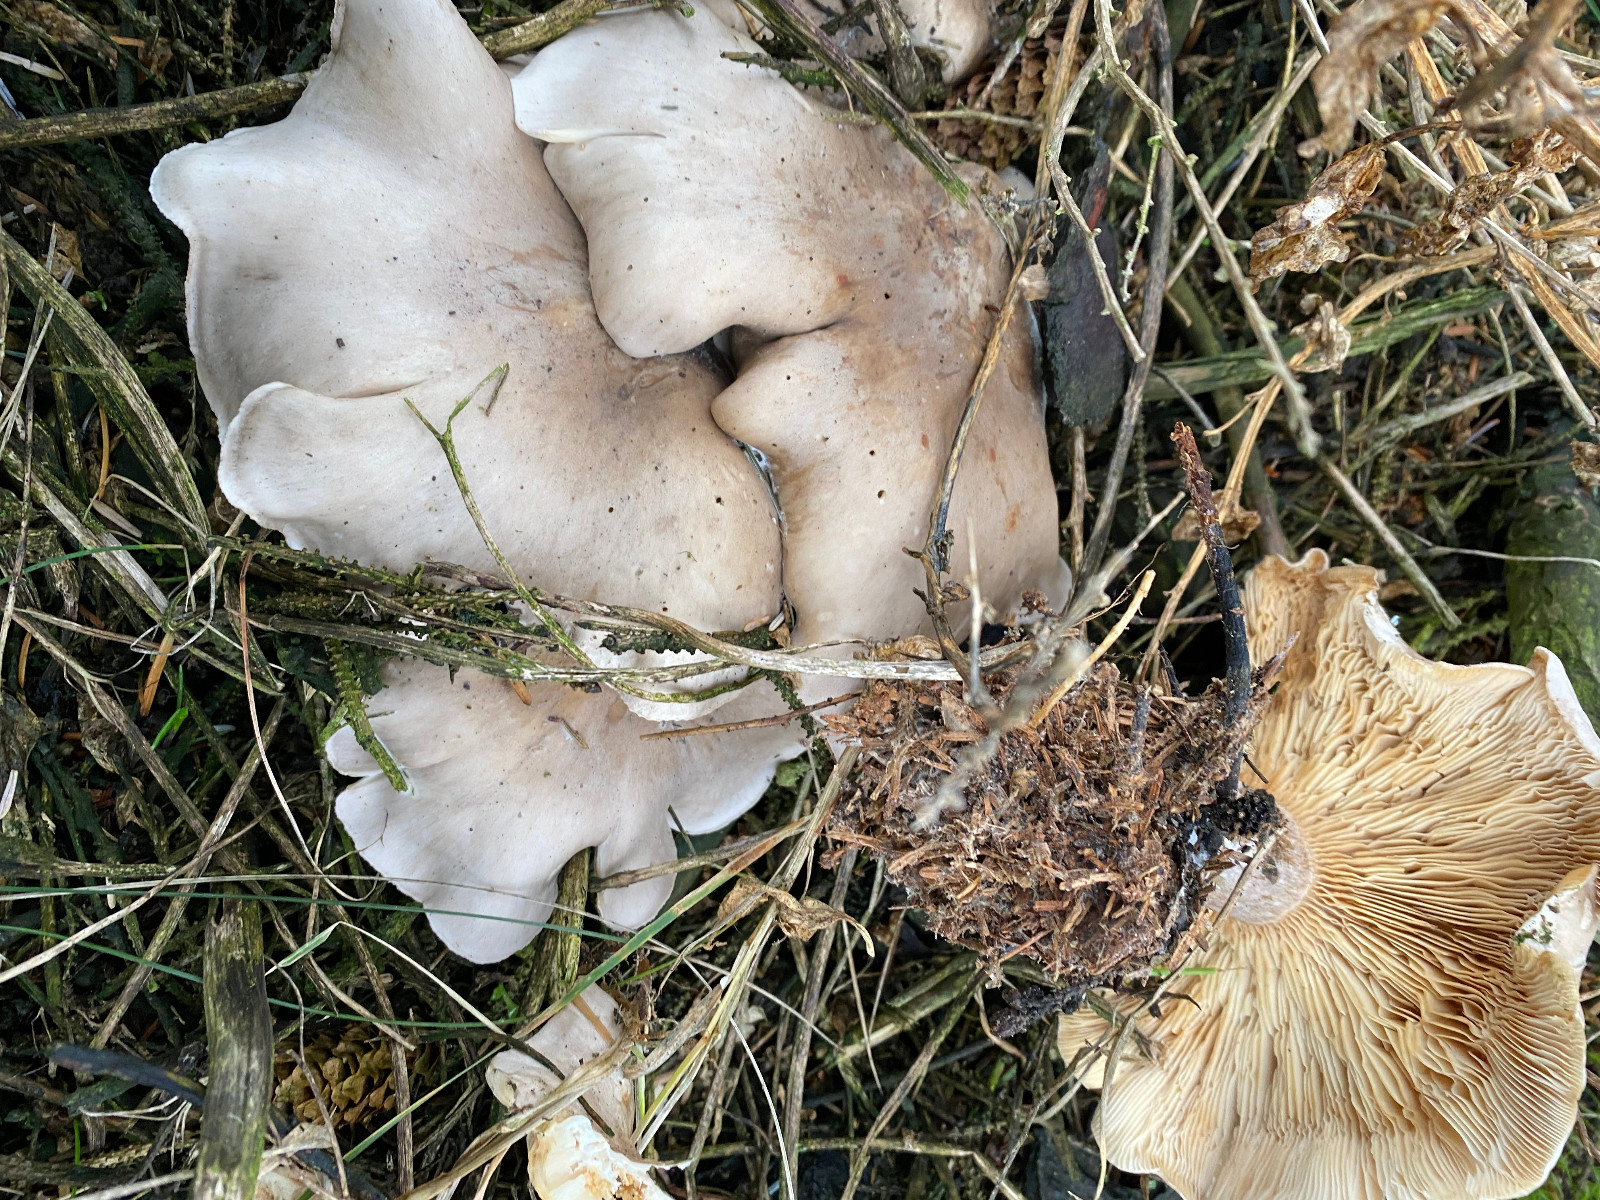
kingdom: Fungi
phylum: Basidiomycota
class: Agaricomycetes
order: Agaricales
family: Tricholomataceae
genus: Clitocybe
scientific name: Clitocybe nebularis
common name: tåge-tragthat
